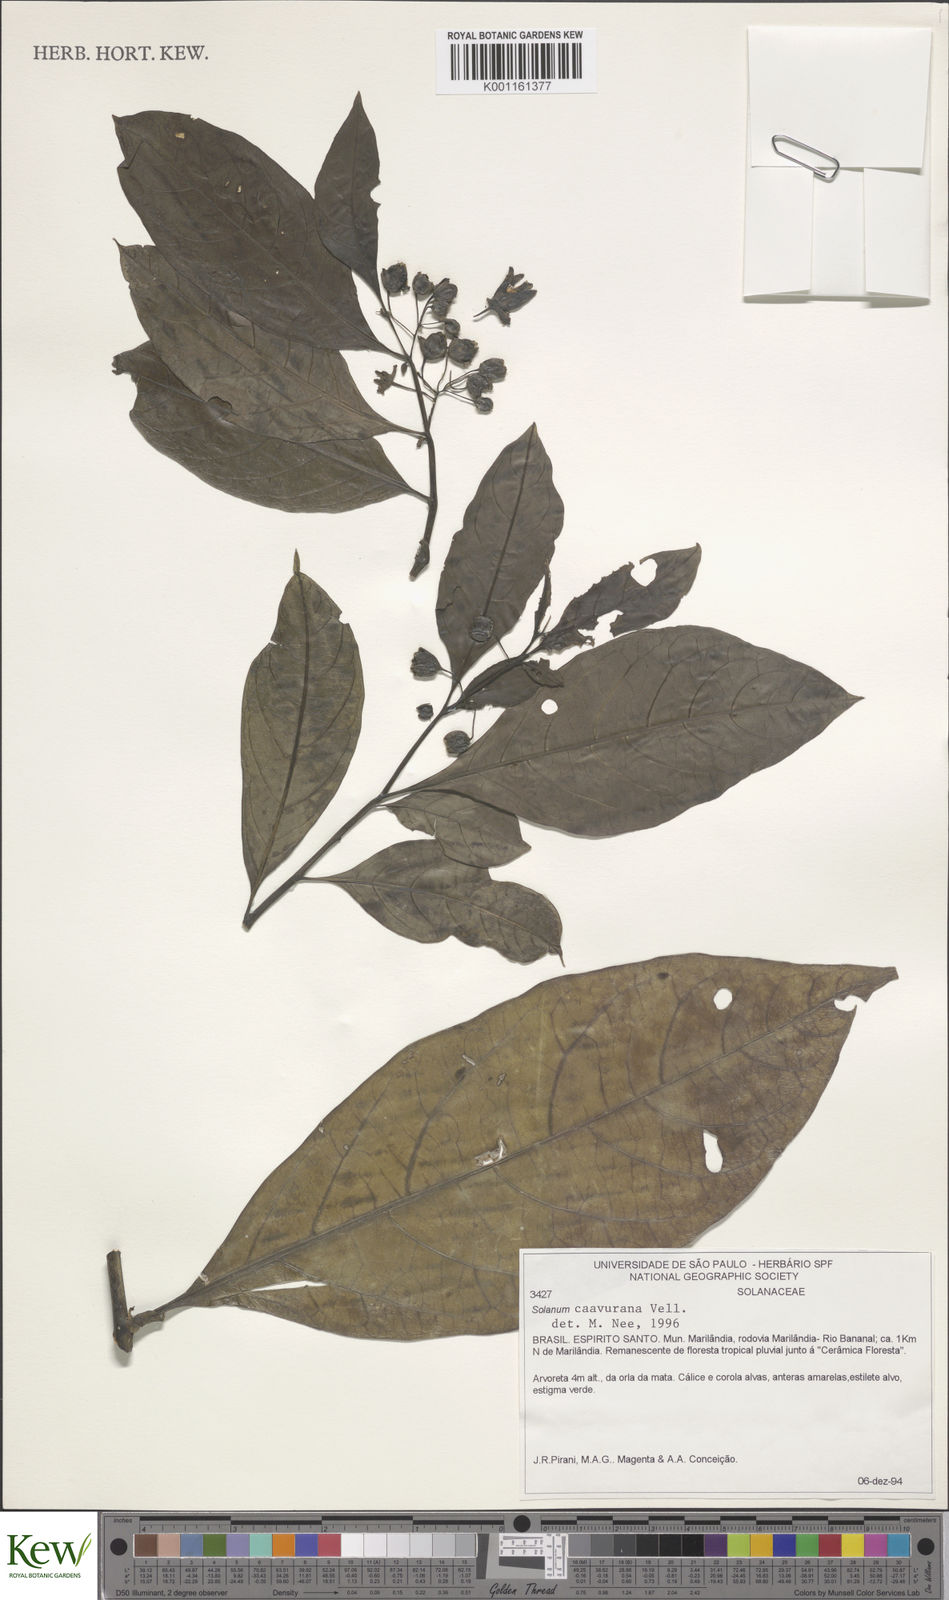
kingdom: Plantae
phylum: Tracheophyta
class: Magnoliopsida
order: Solanales
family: Solanaceae
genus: Solanum
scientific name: Solanum caavurana
